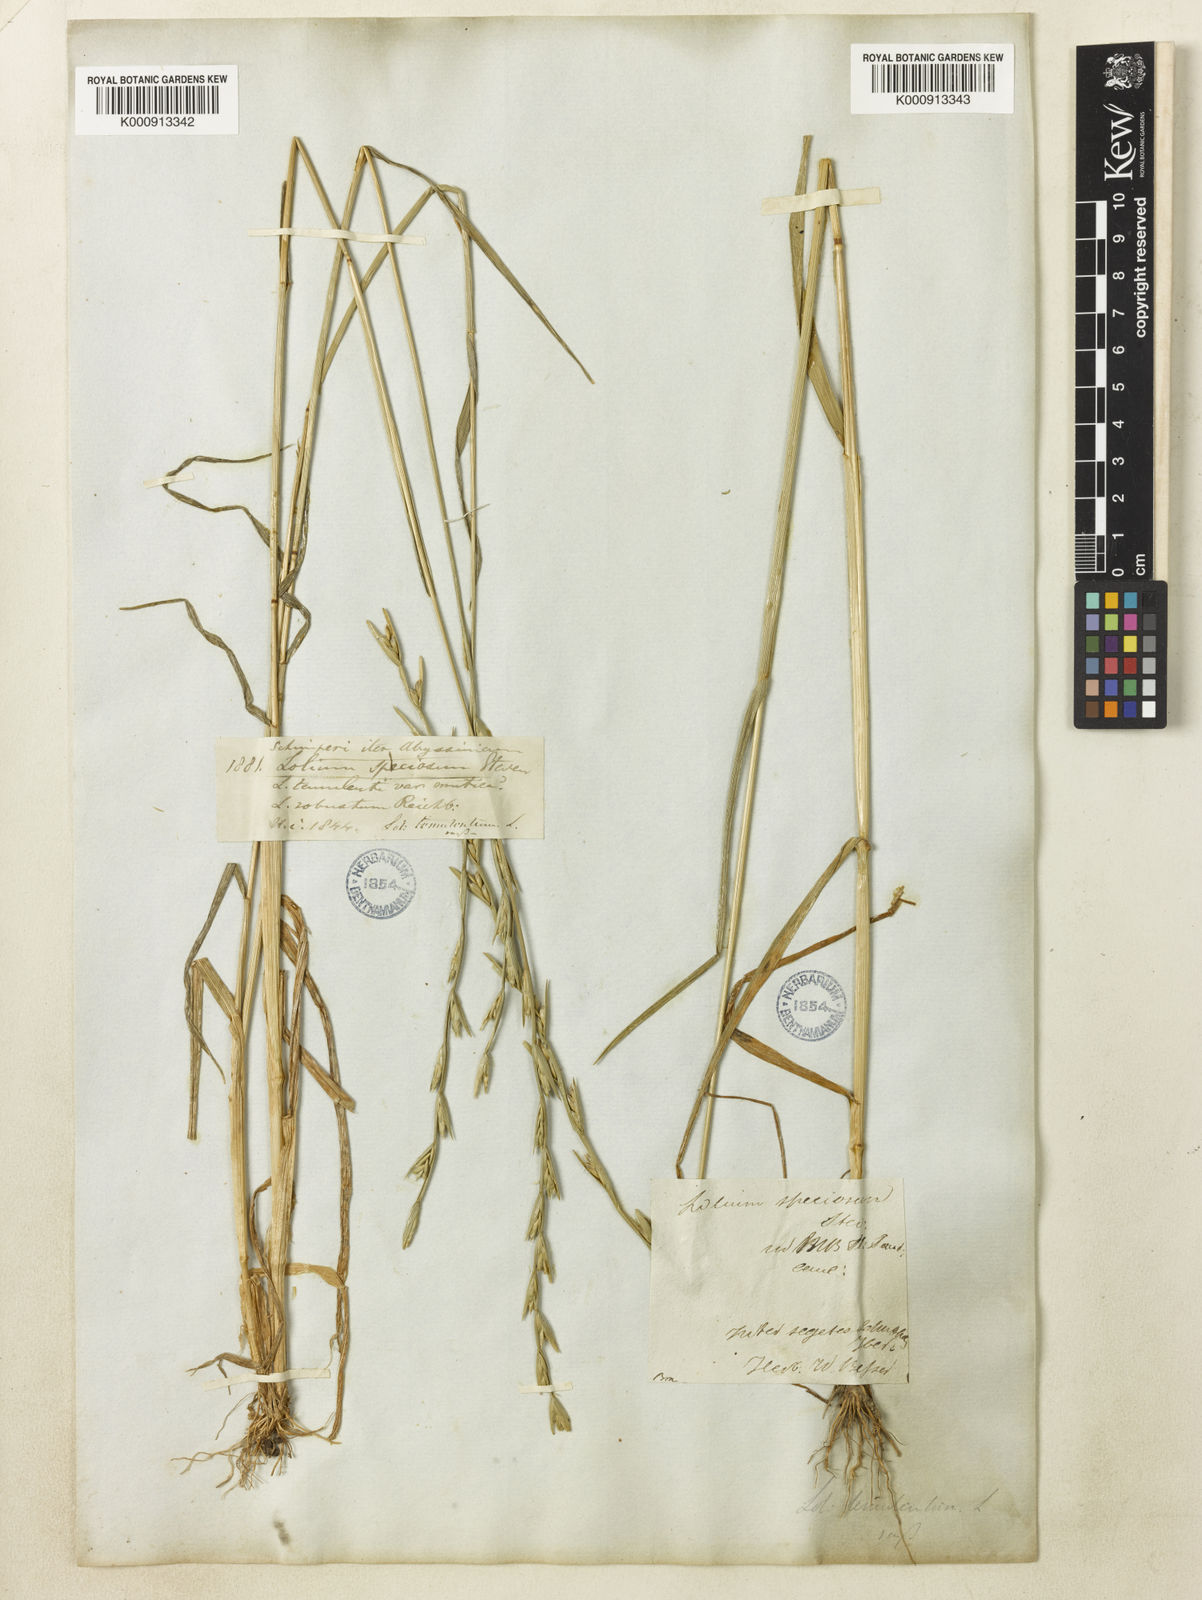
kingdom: Plantae
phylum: Tracheophyta
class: Liliopsida
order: Poales
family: Poaceae
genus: Lolium
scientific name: Lolium temulentum
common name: Darnel
